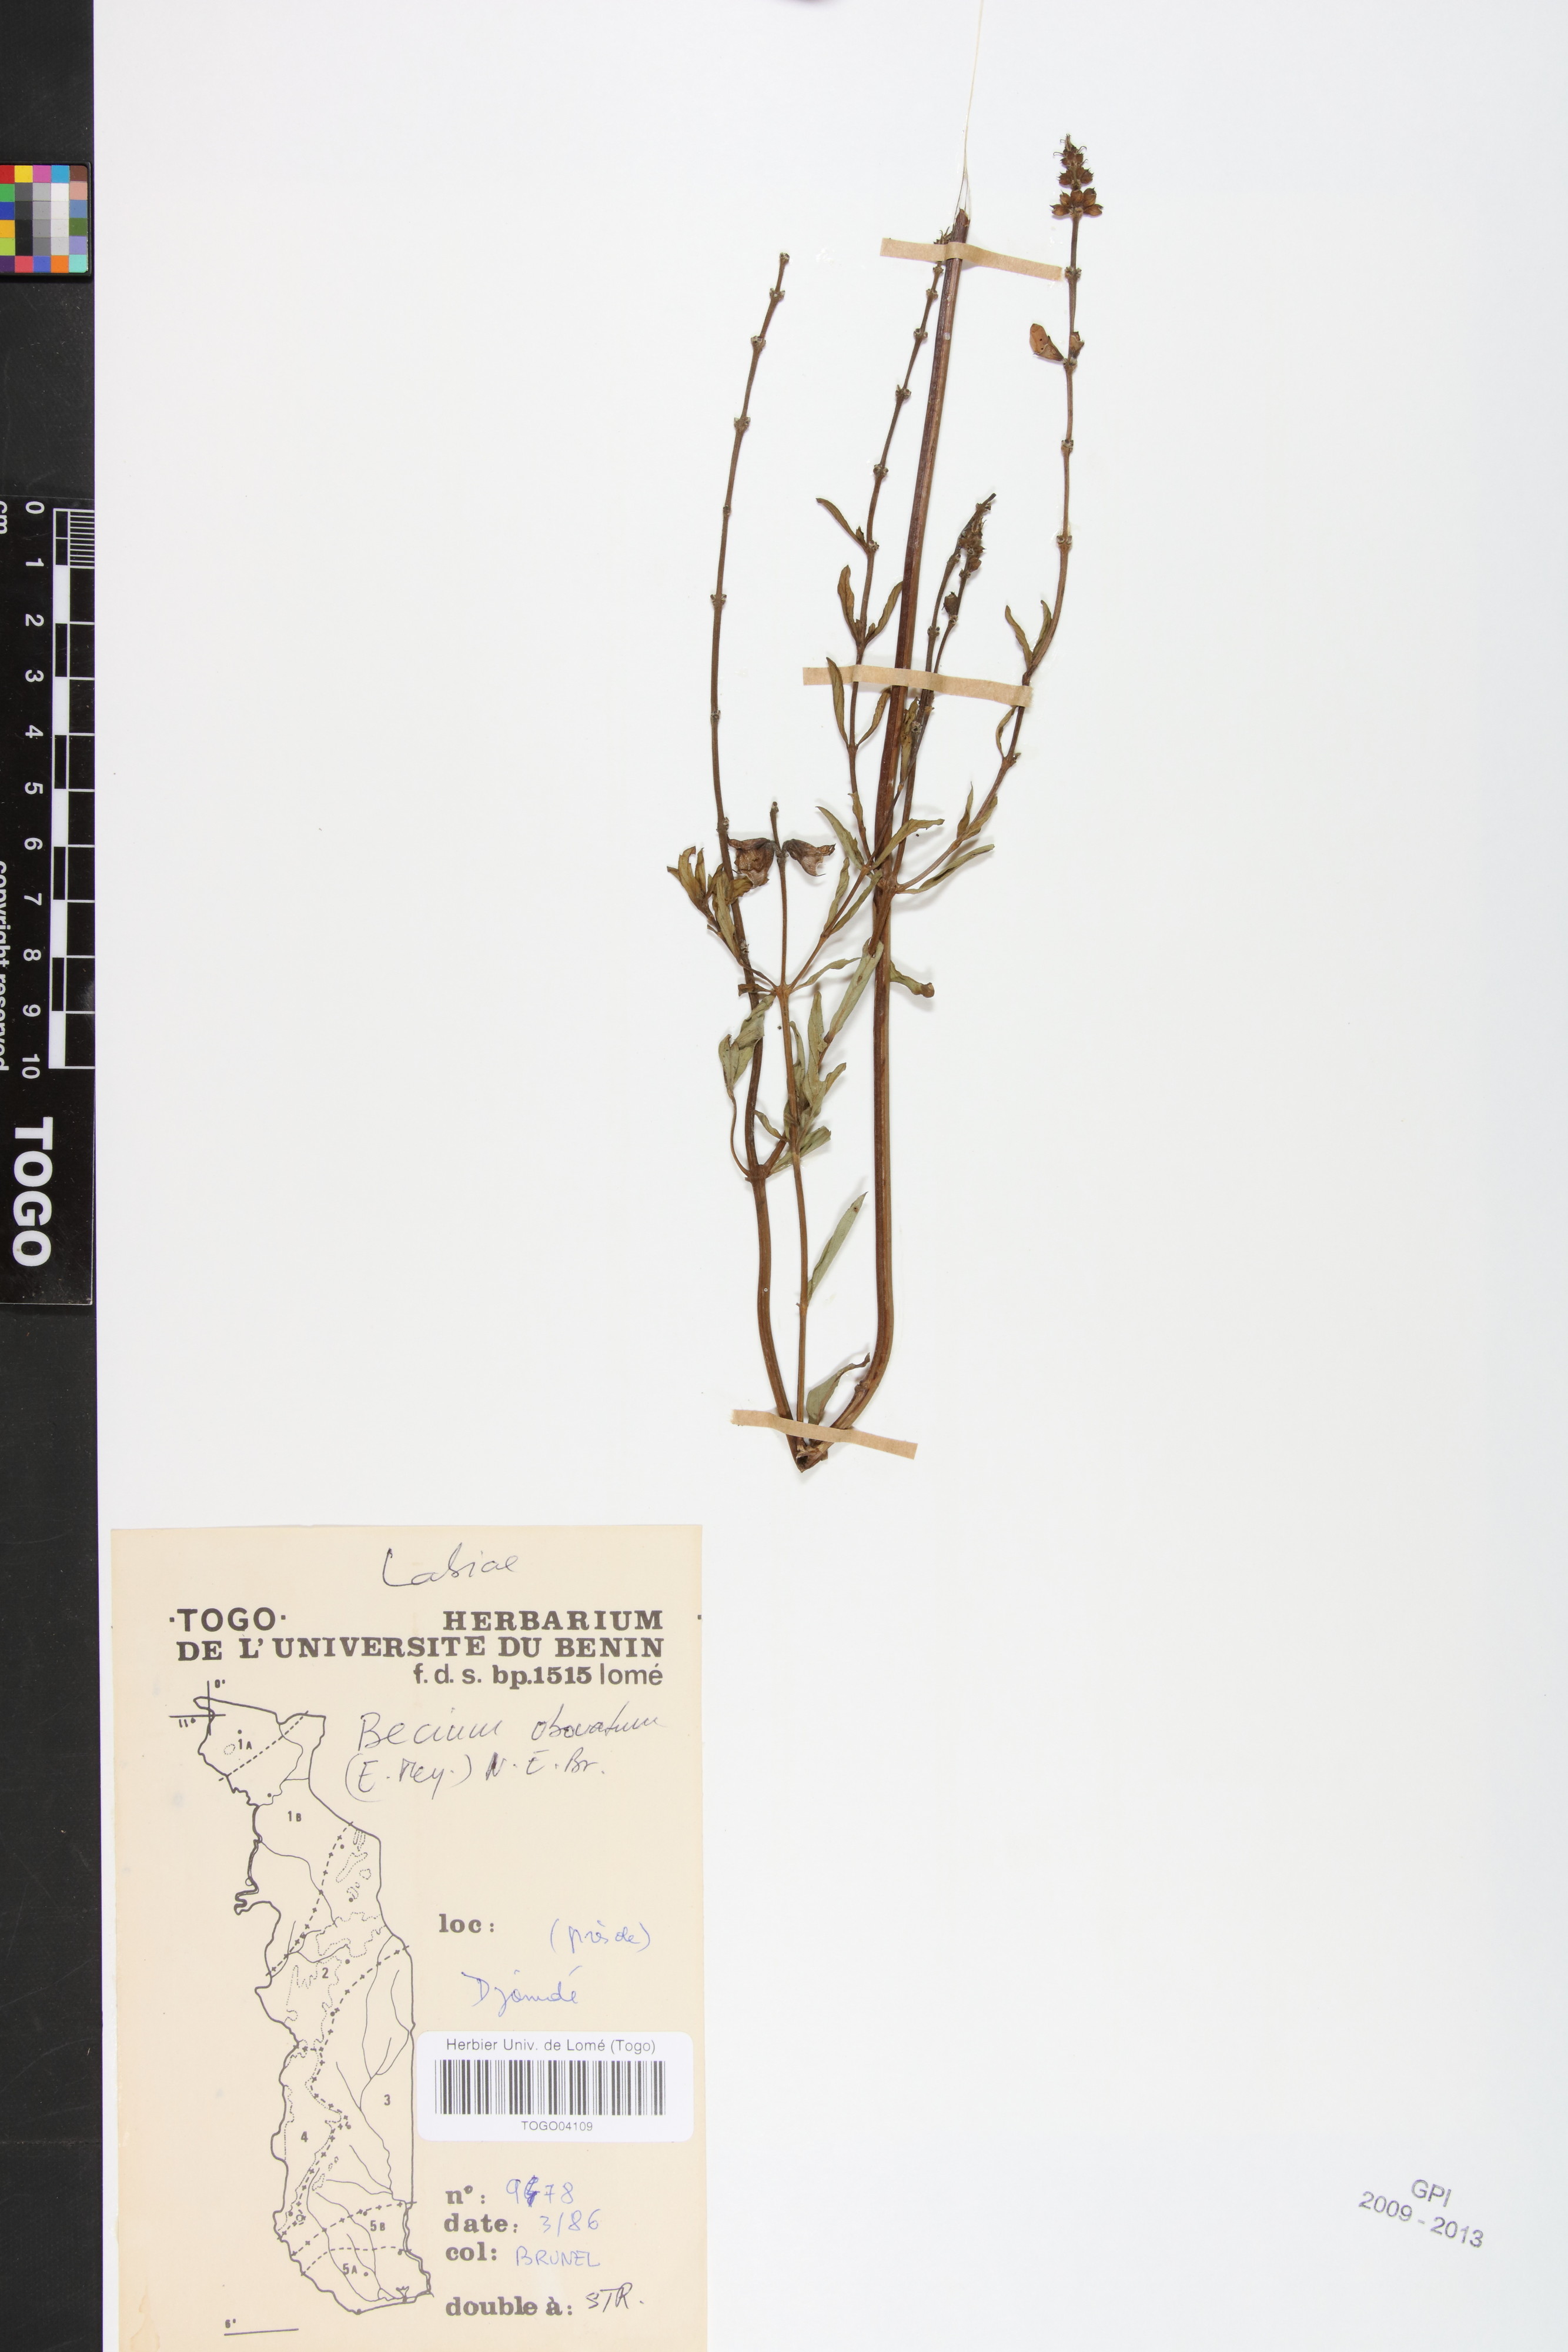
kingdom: Plantae
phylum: Tracheophyta
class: Magnoliopsida
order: Lamiales
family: Lamiaceae
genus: Ocimum
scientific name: Ocimum obovatum
